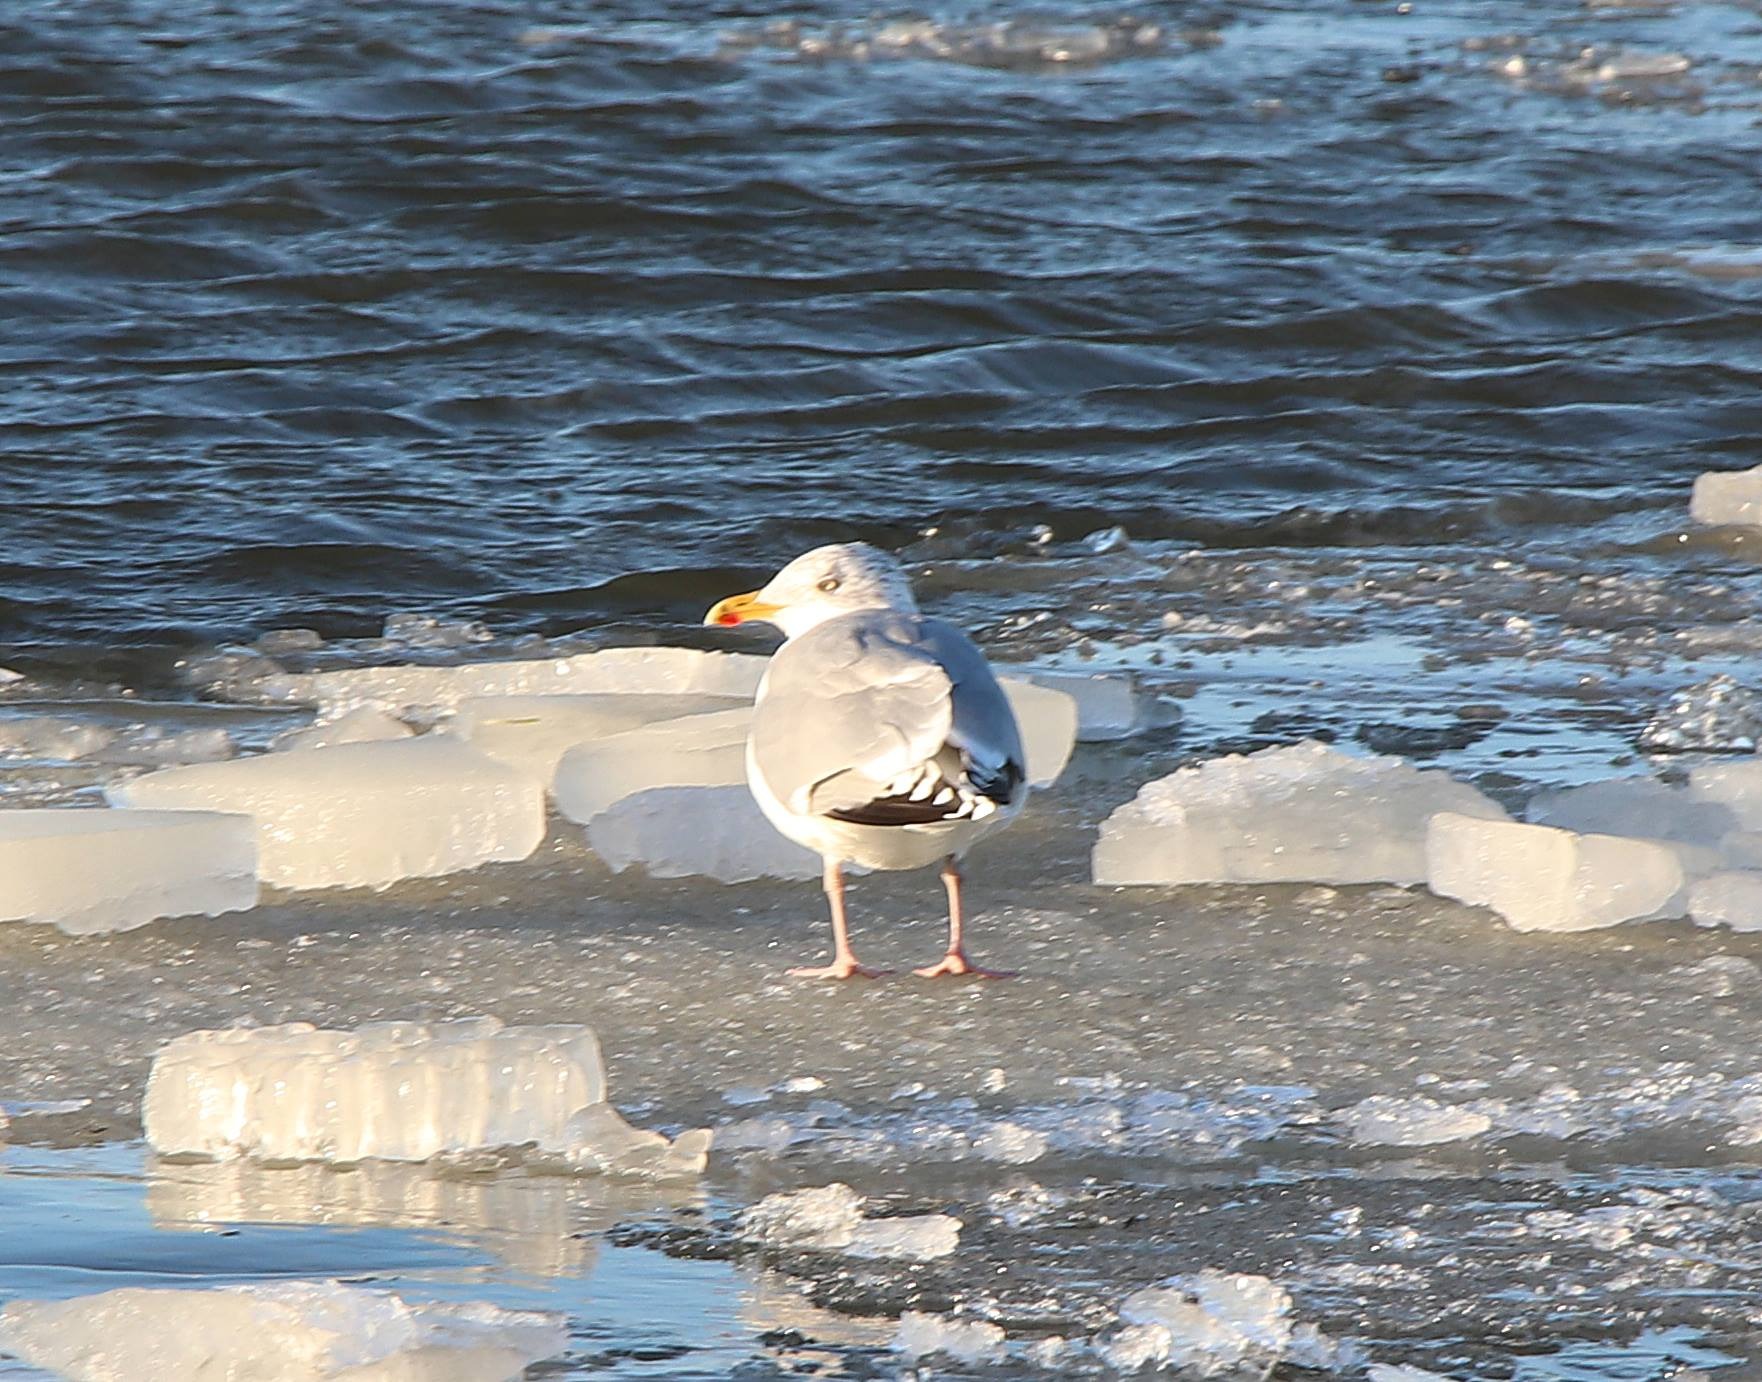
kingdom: Animalia
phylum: Chordata
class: Aves
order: Charadriiformes
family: Laridae
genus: Larus
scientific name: Larus argentatus
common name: Sølvmåge
